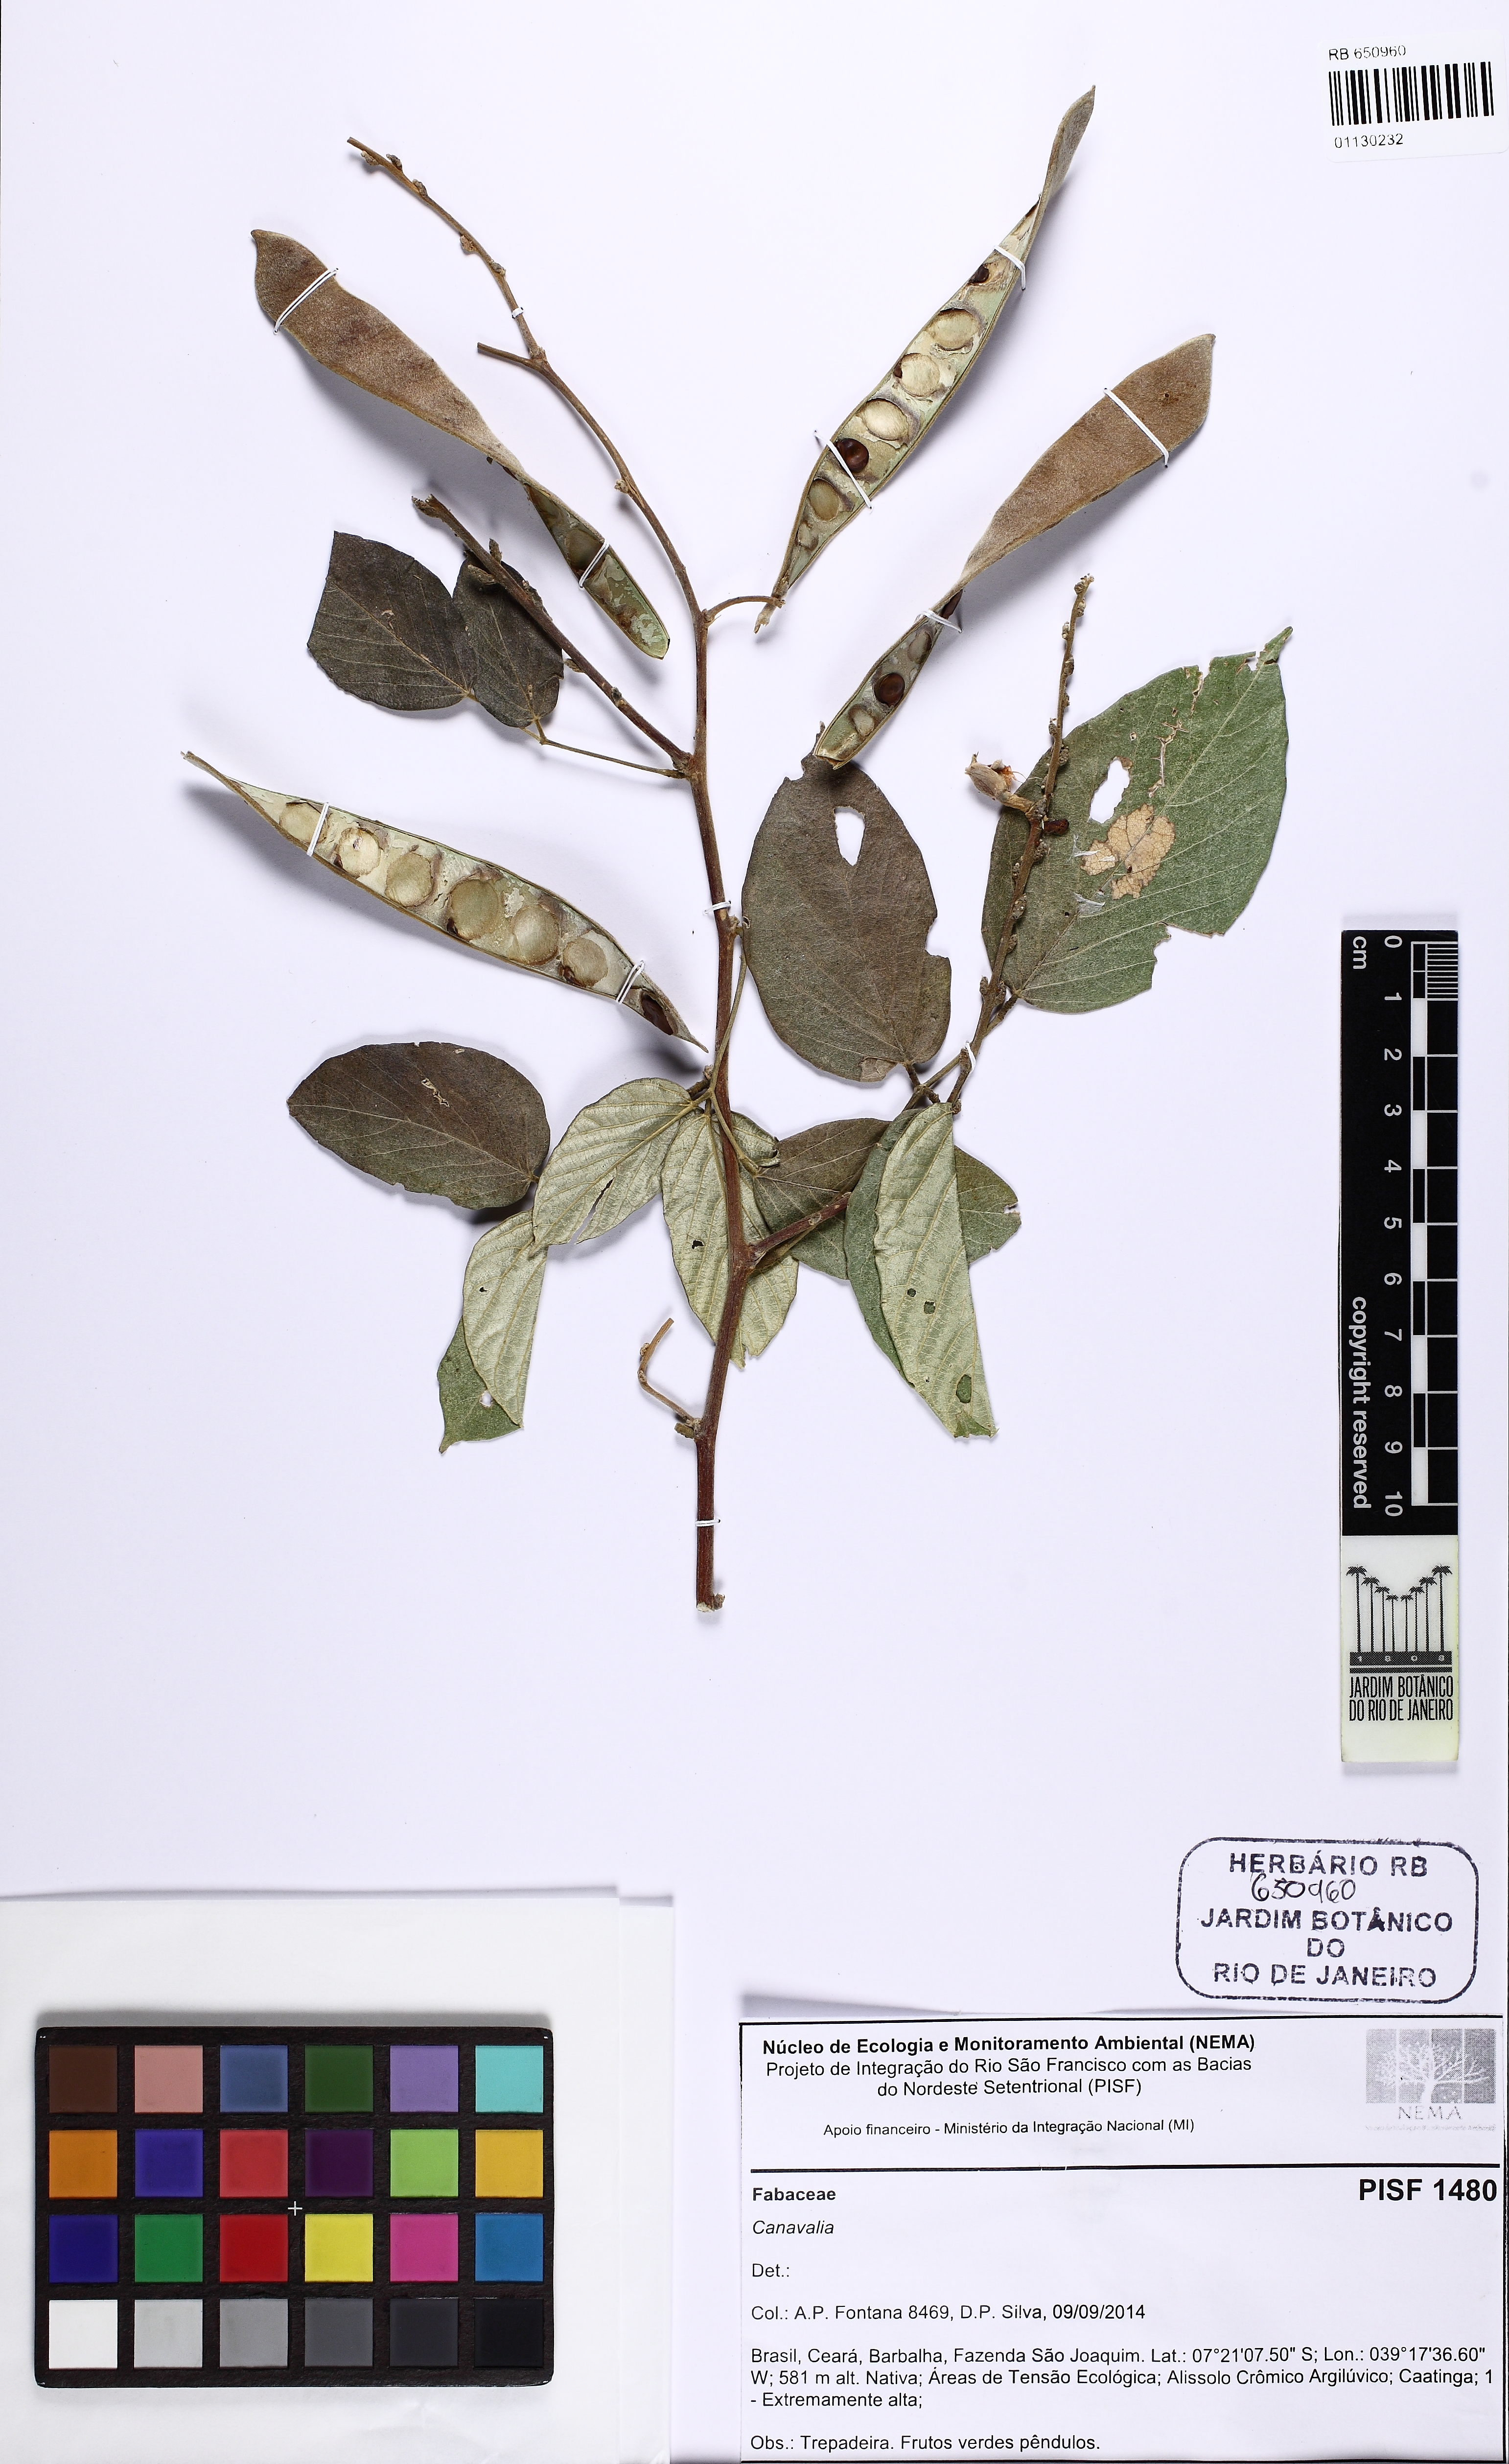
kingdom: Plantae
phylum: Tracheophyta
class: Magnoliopsida
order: Fabales
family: Fabaceae
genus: Canavalia
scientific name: Canavalia
